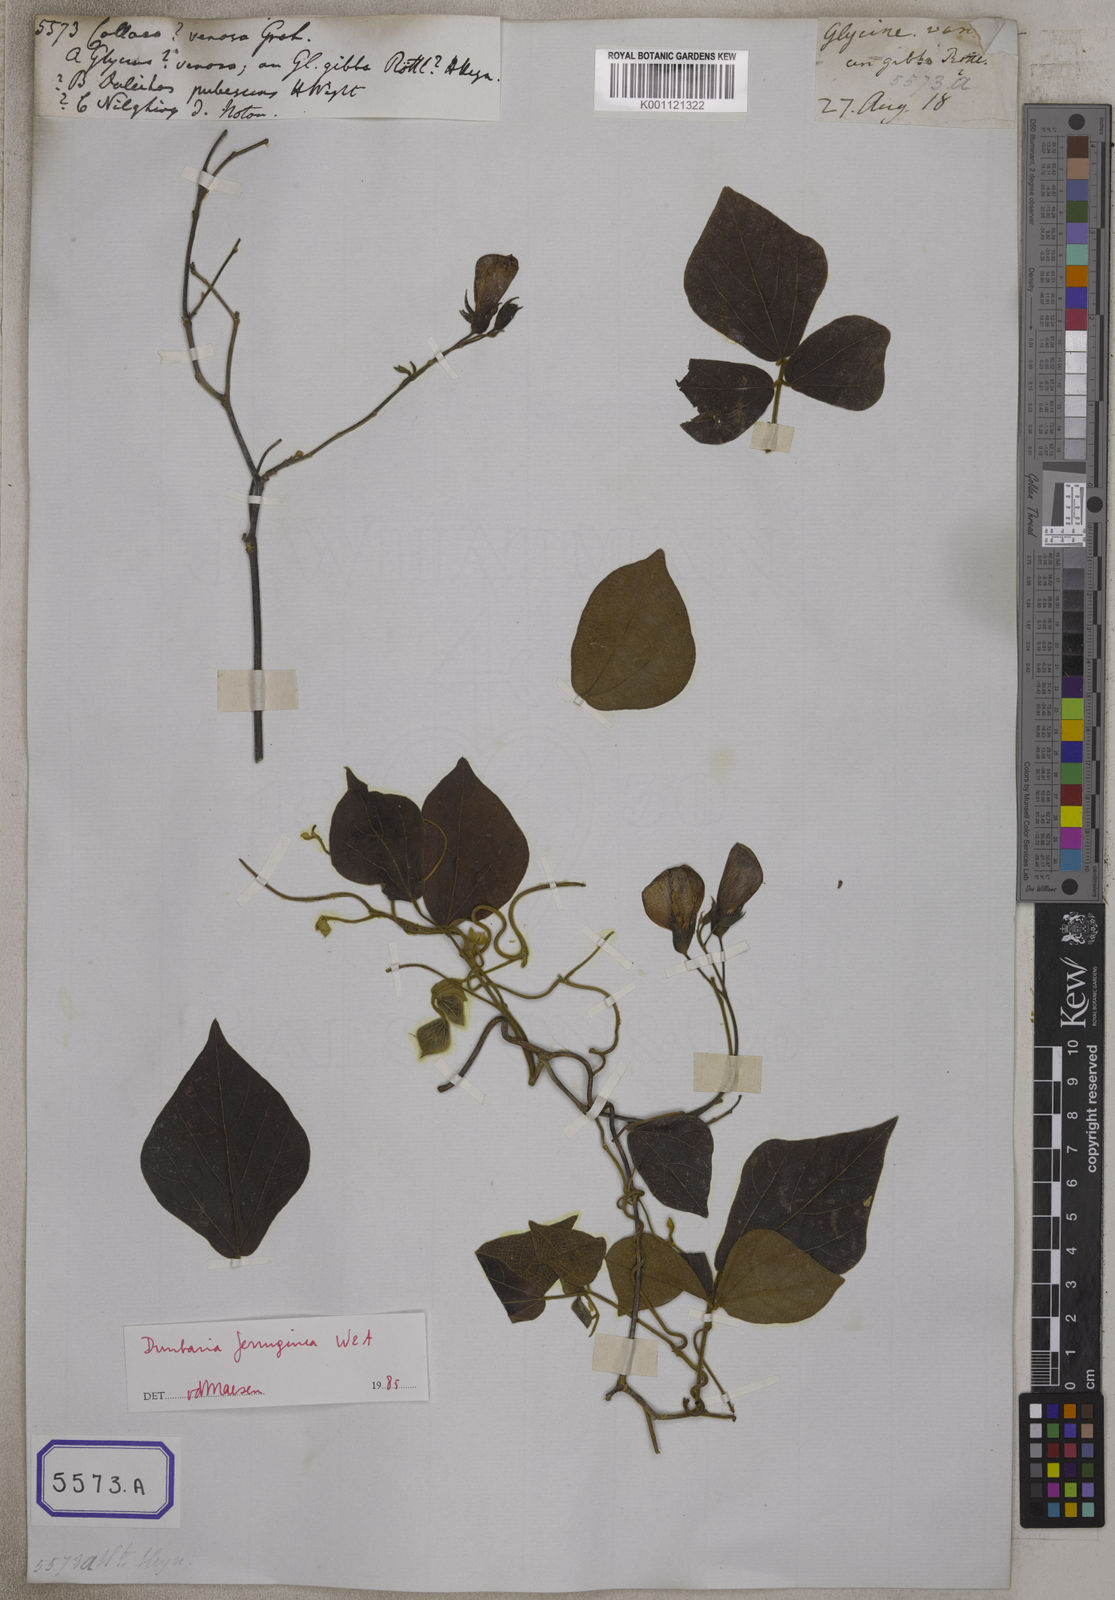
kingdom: Plantae
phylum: Tracheophyta
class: Magnoliopsida
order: Fabales
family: Fabaceae
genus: Dunbaria
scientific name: Dunbaria ferruginea
